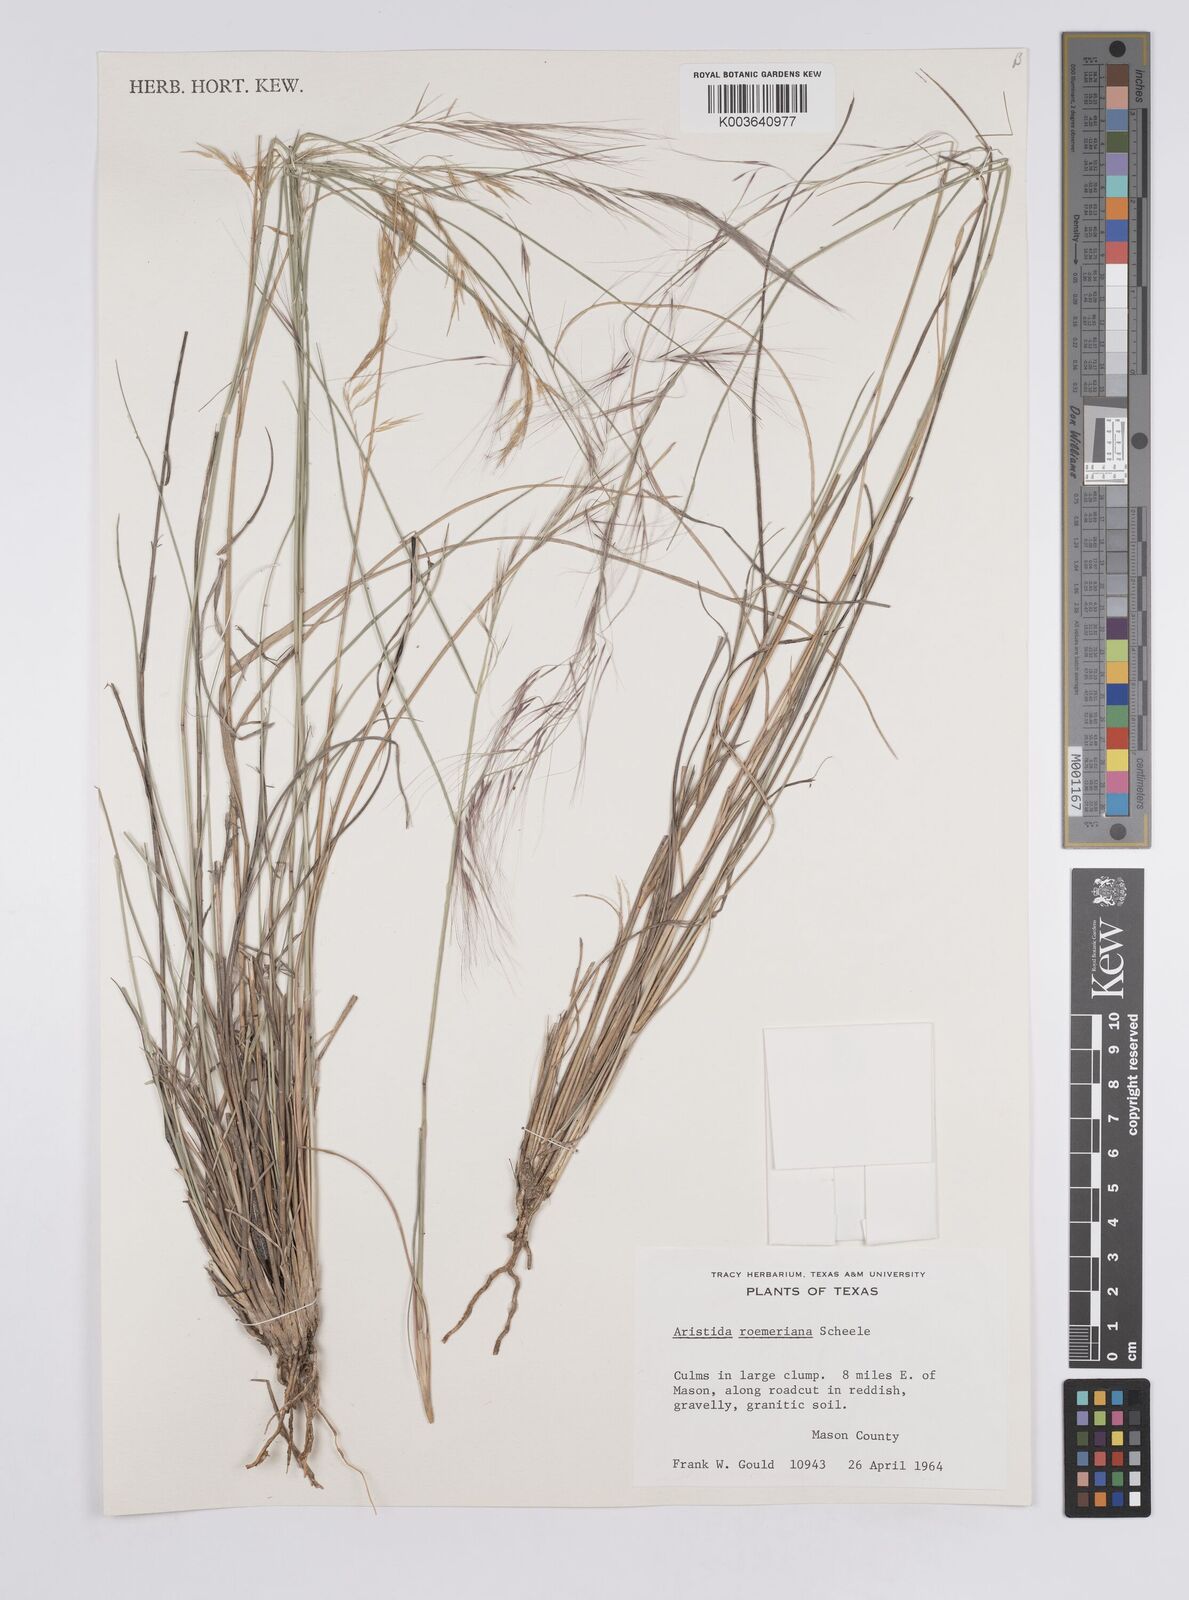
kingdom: Plantae
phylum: Tracheophyta
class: Liliopsida
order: Poales
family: Poaceae
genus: Aristida
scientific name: Aristida purpurea
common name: Purple threeawn
